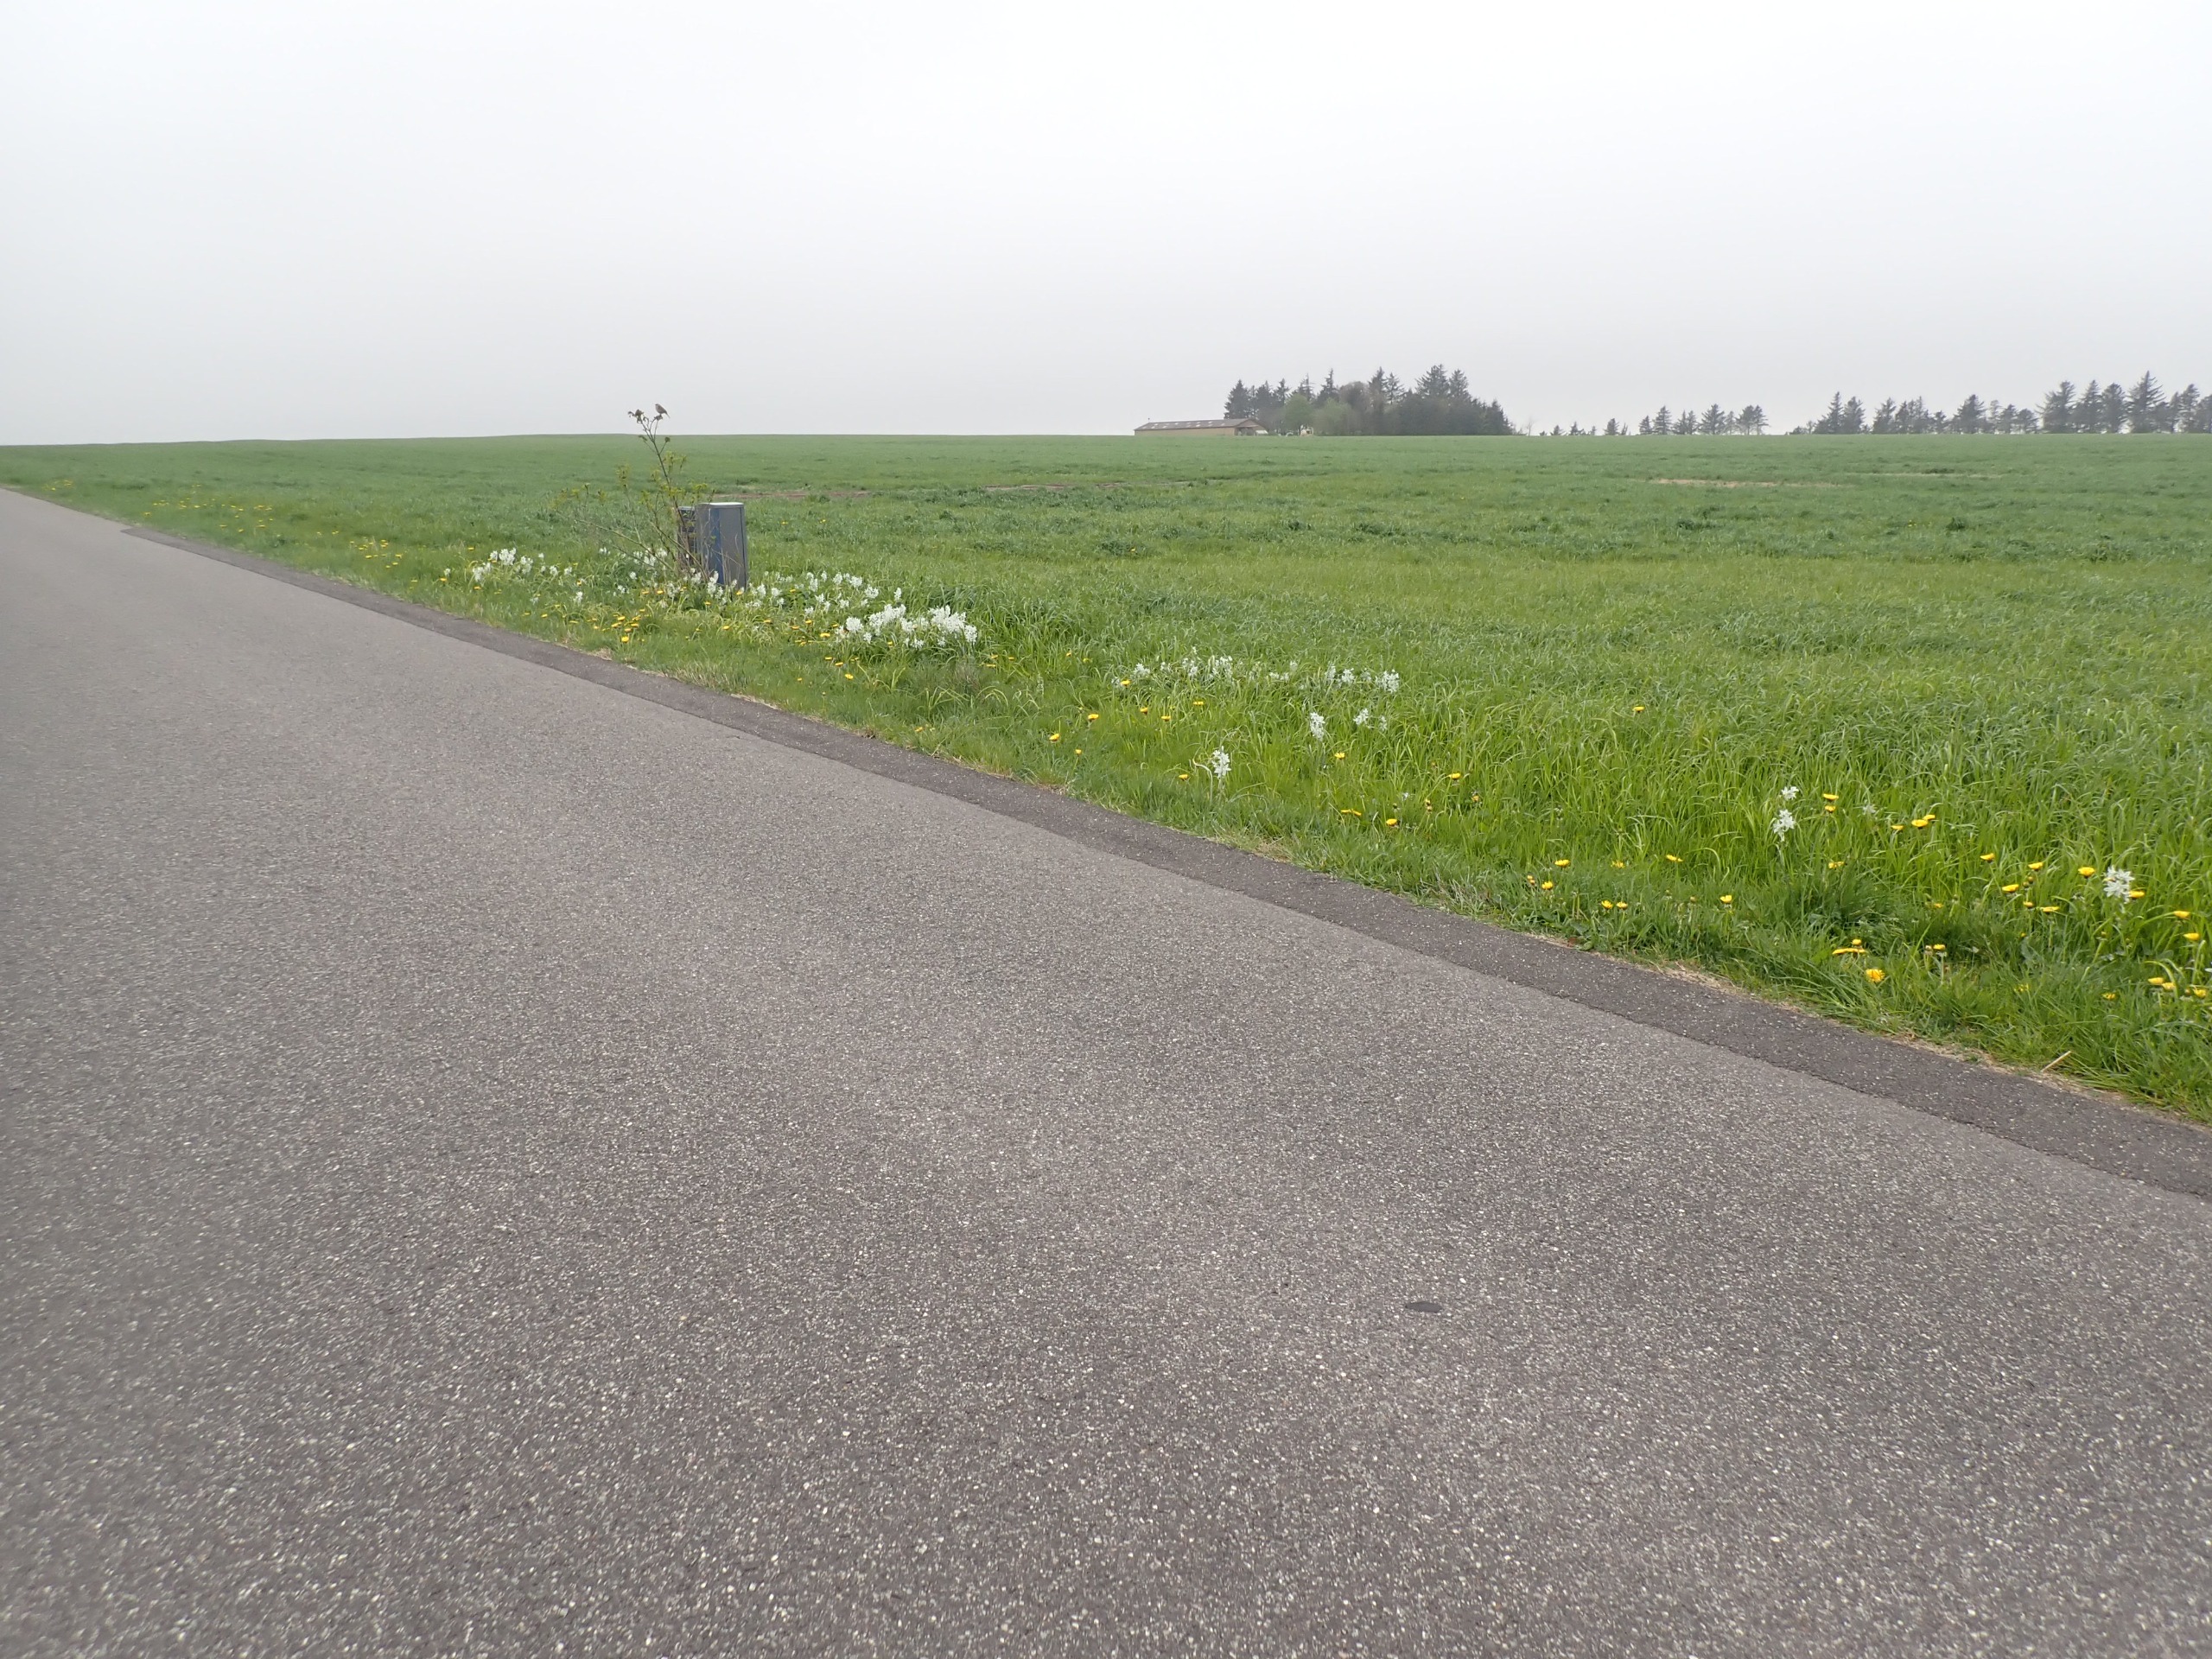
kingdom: Plantae
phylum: Tracheophyta
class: Liliopsida
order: Asparagales
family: Asparagaceae
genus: Ornithogalum
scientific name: Ornithogalum nutans
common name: Nikkende fuglemælk
